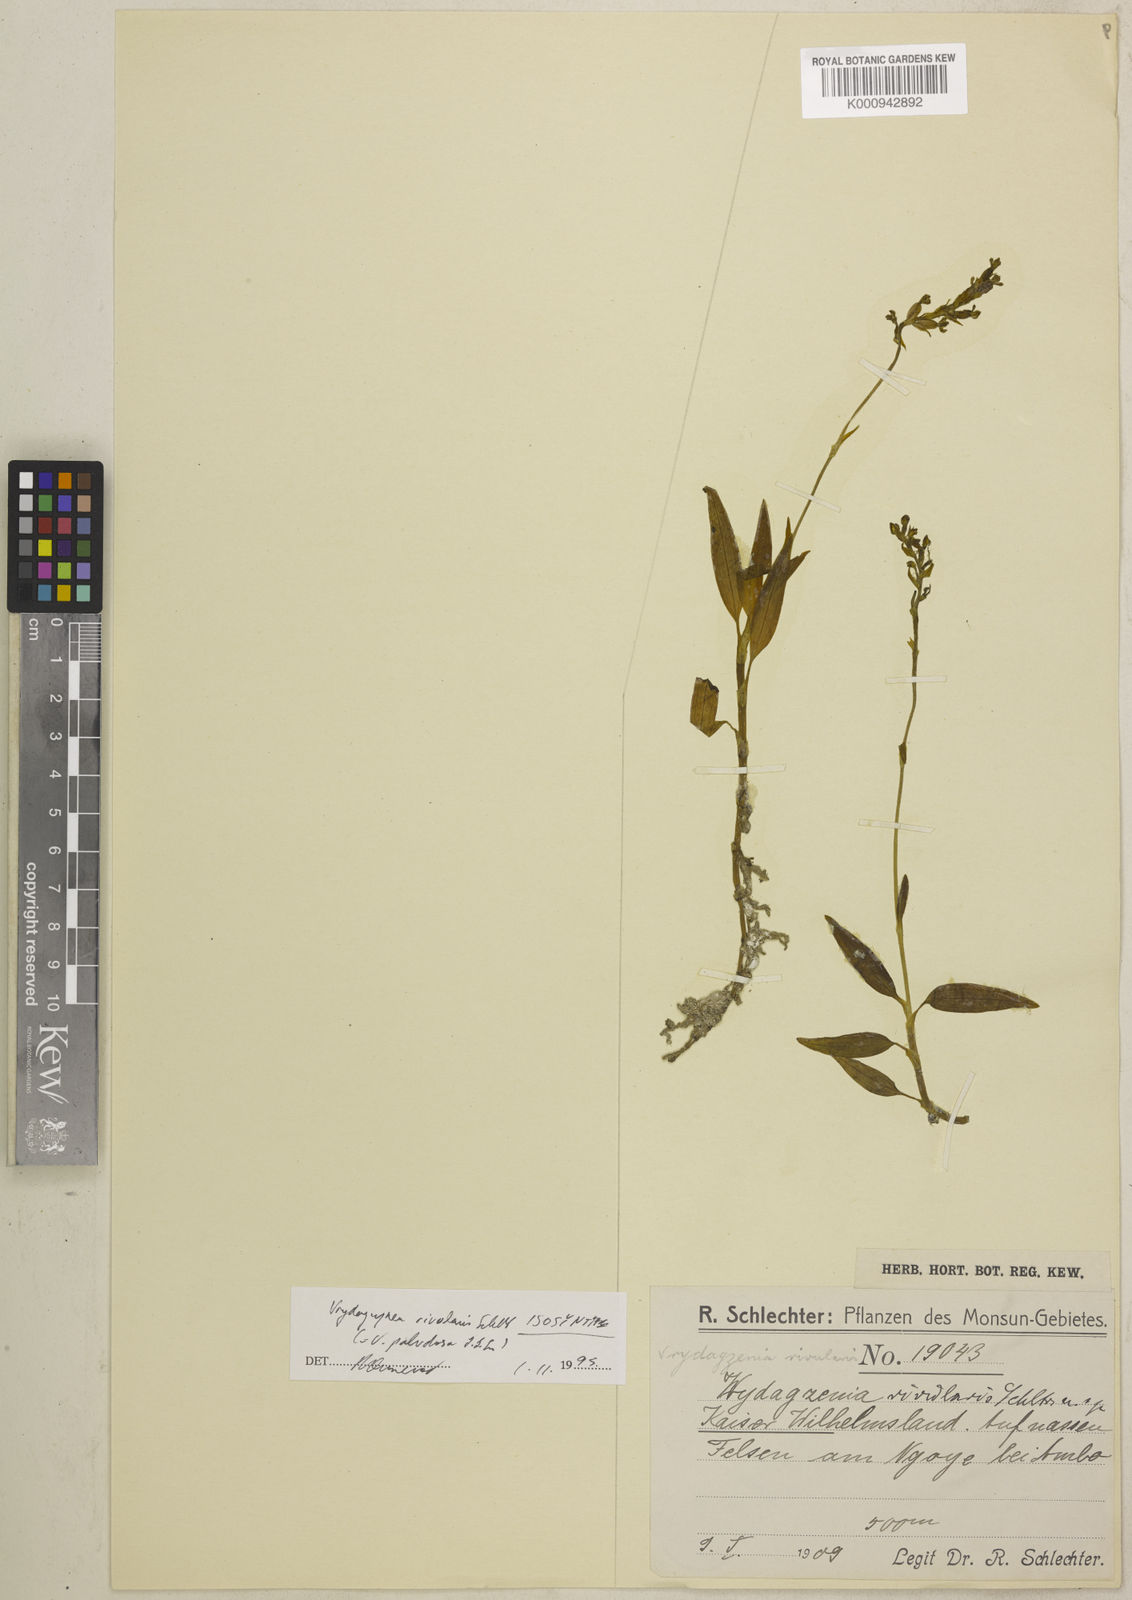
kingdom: Plantae
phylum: Tracheophyta
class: Liliopsida
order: Asparagales
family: Orchidaceae
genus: Vrydagzynea
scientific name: Vrydagzynea paludosa
